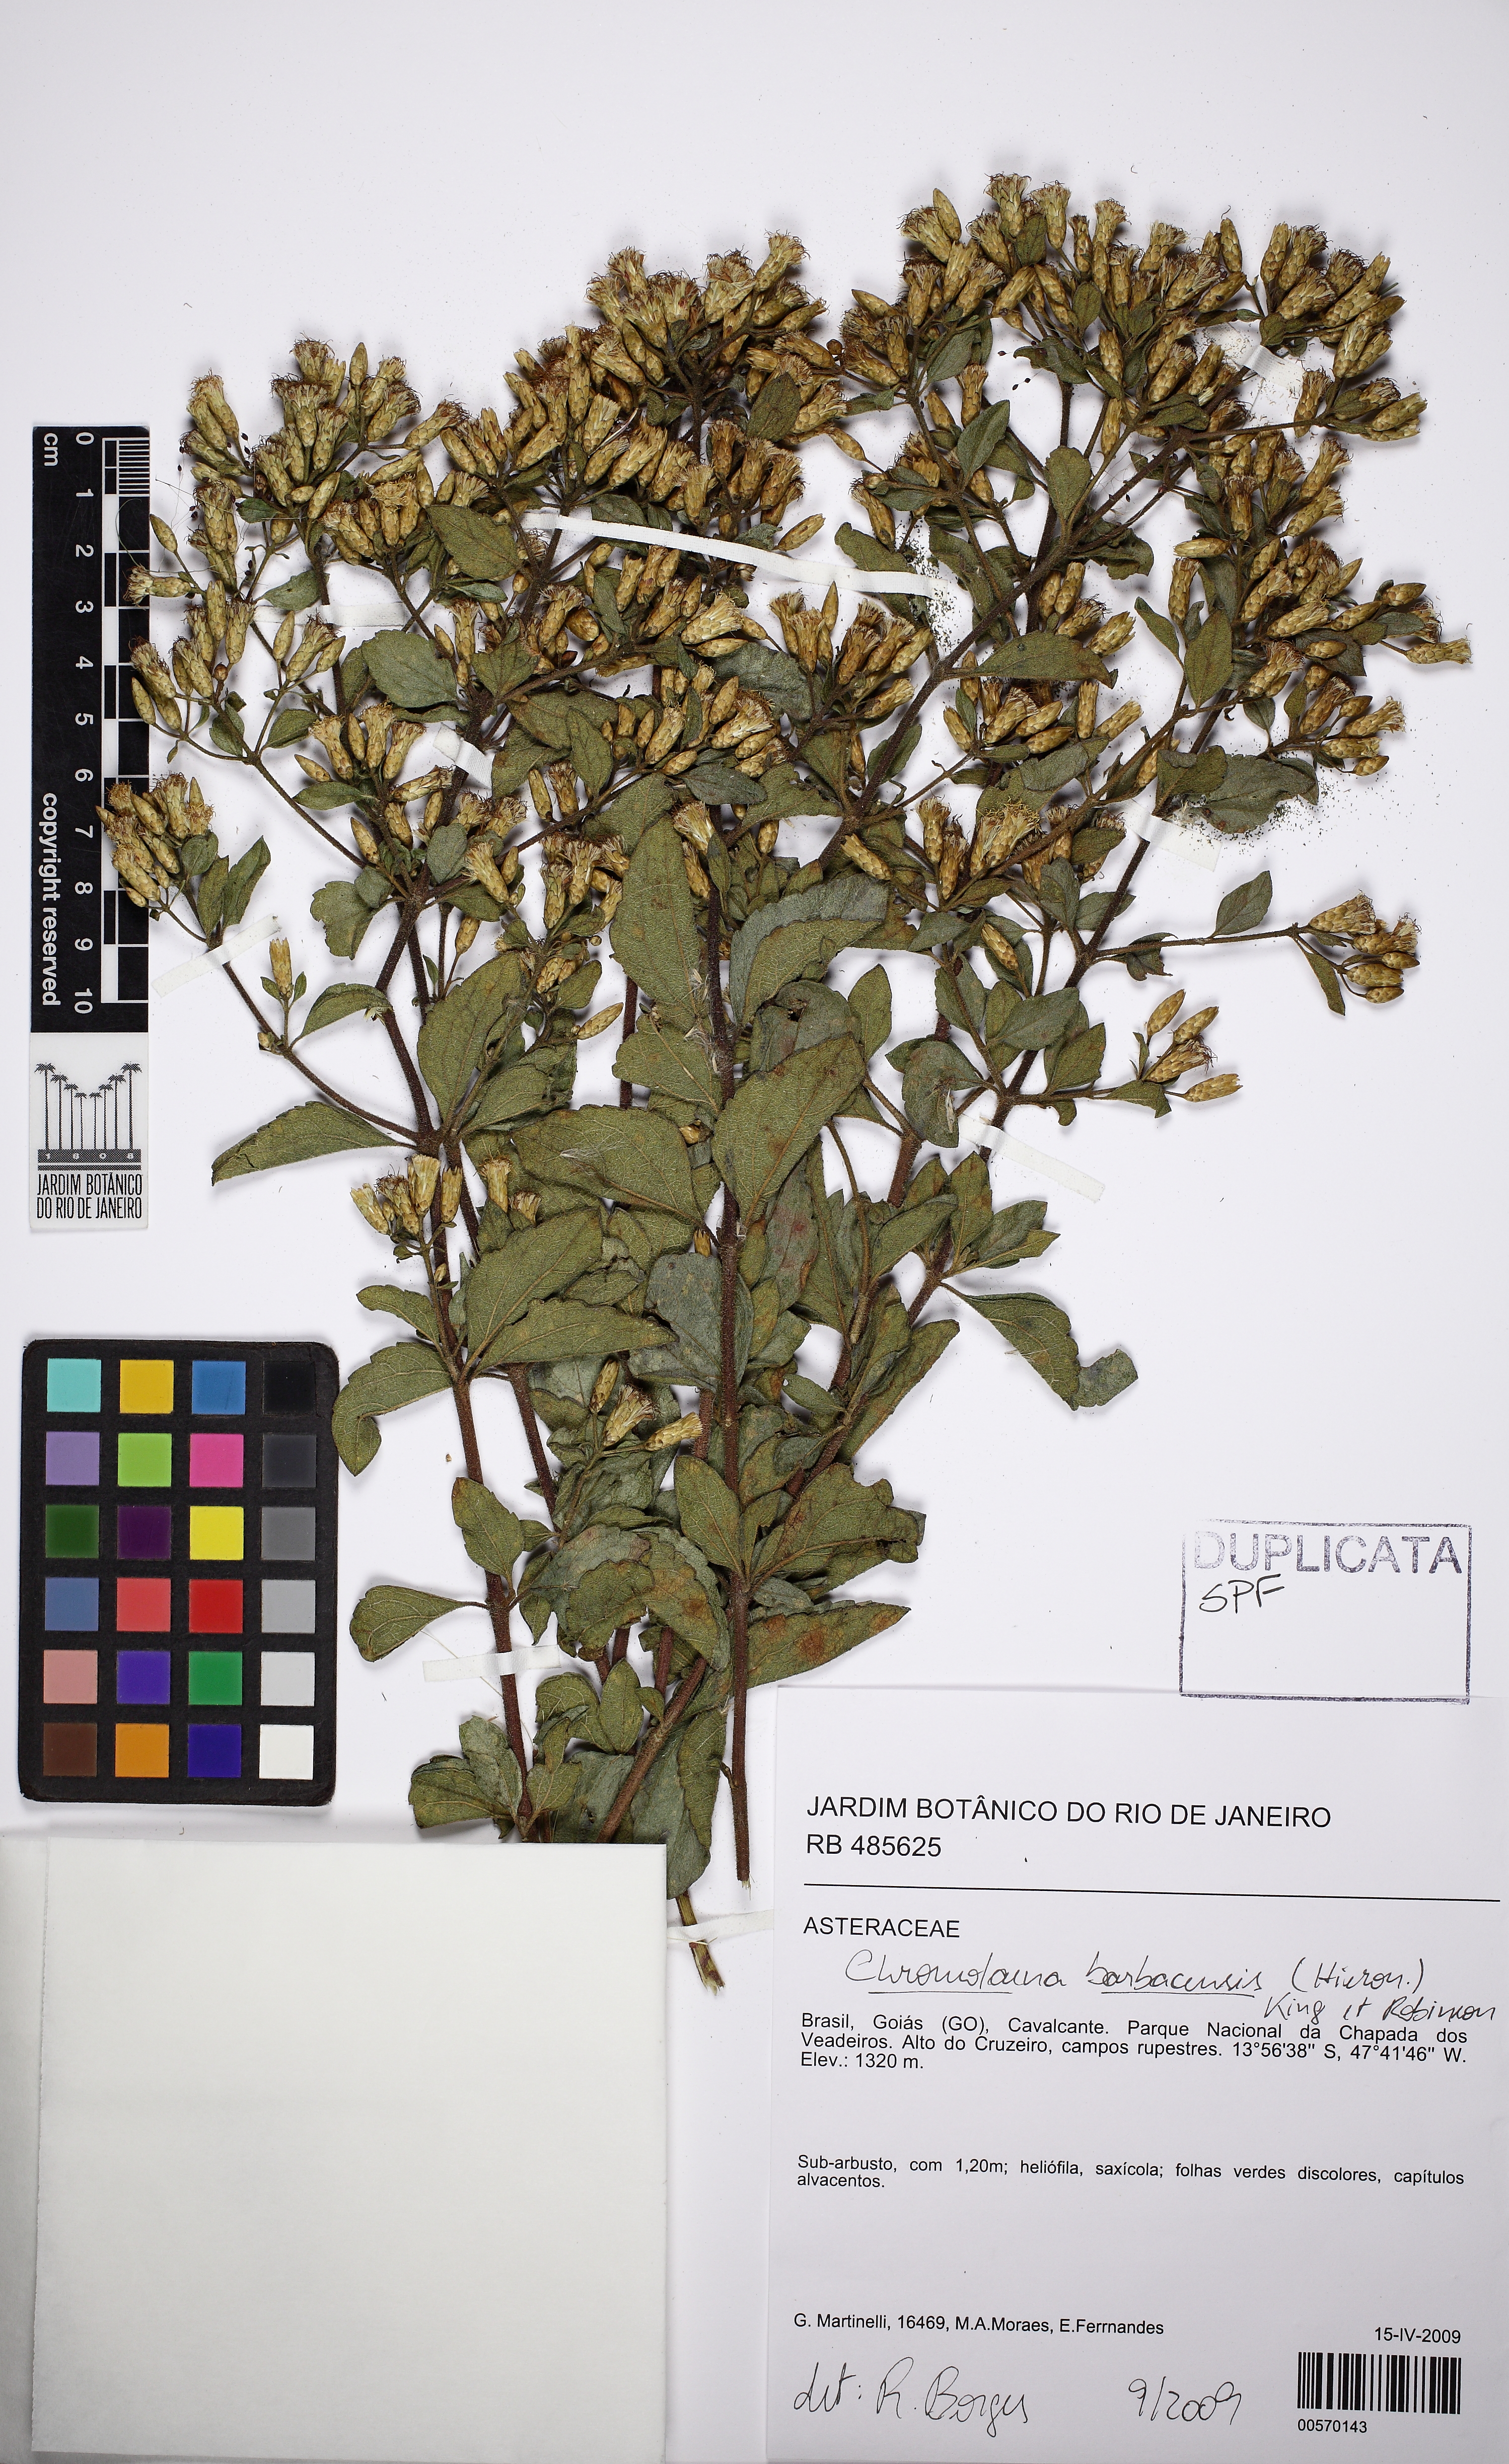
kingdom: Plantae
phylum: Tracheophyta
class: Magnoliopsida
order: Asterales
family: Asteraceae
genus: Chromolaena
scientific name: Chromolaena barbacensis
